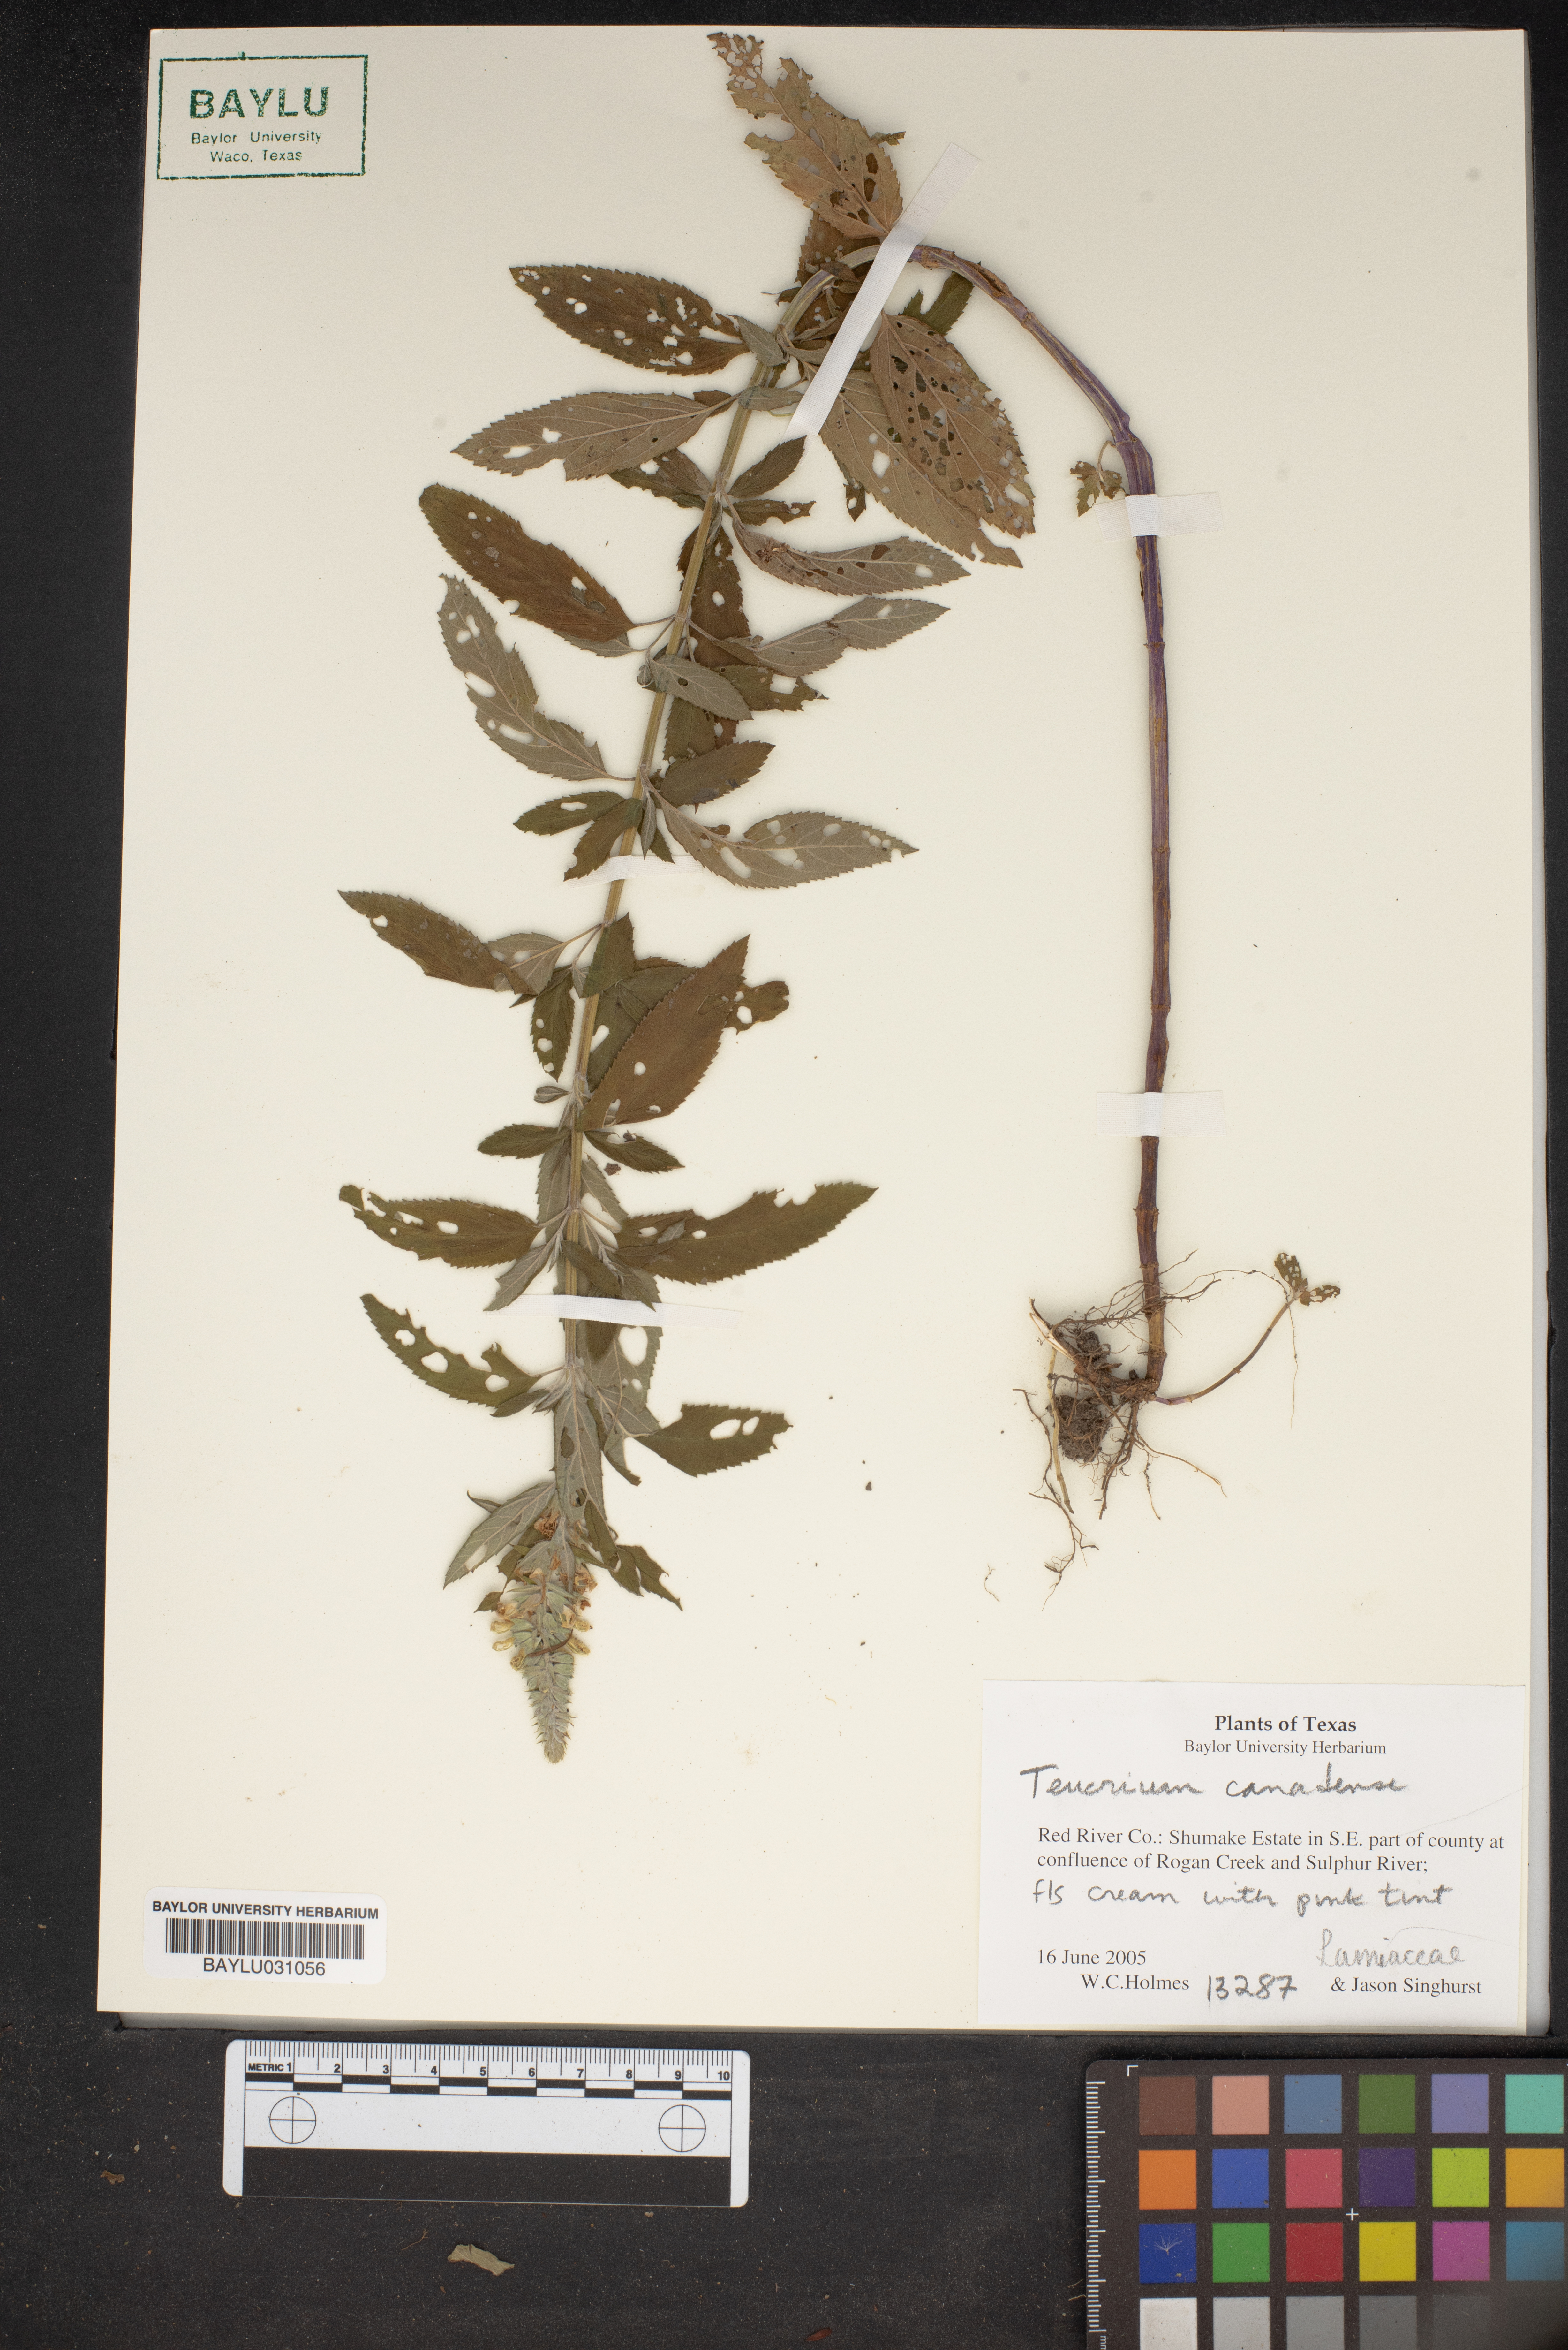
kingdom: Plantae
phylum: Tracheophyta
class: Magnoliopsida
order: Lamiales
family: Lamiaceae
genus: Teucrium
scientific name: Teucrium canadense
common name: American germander
